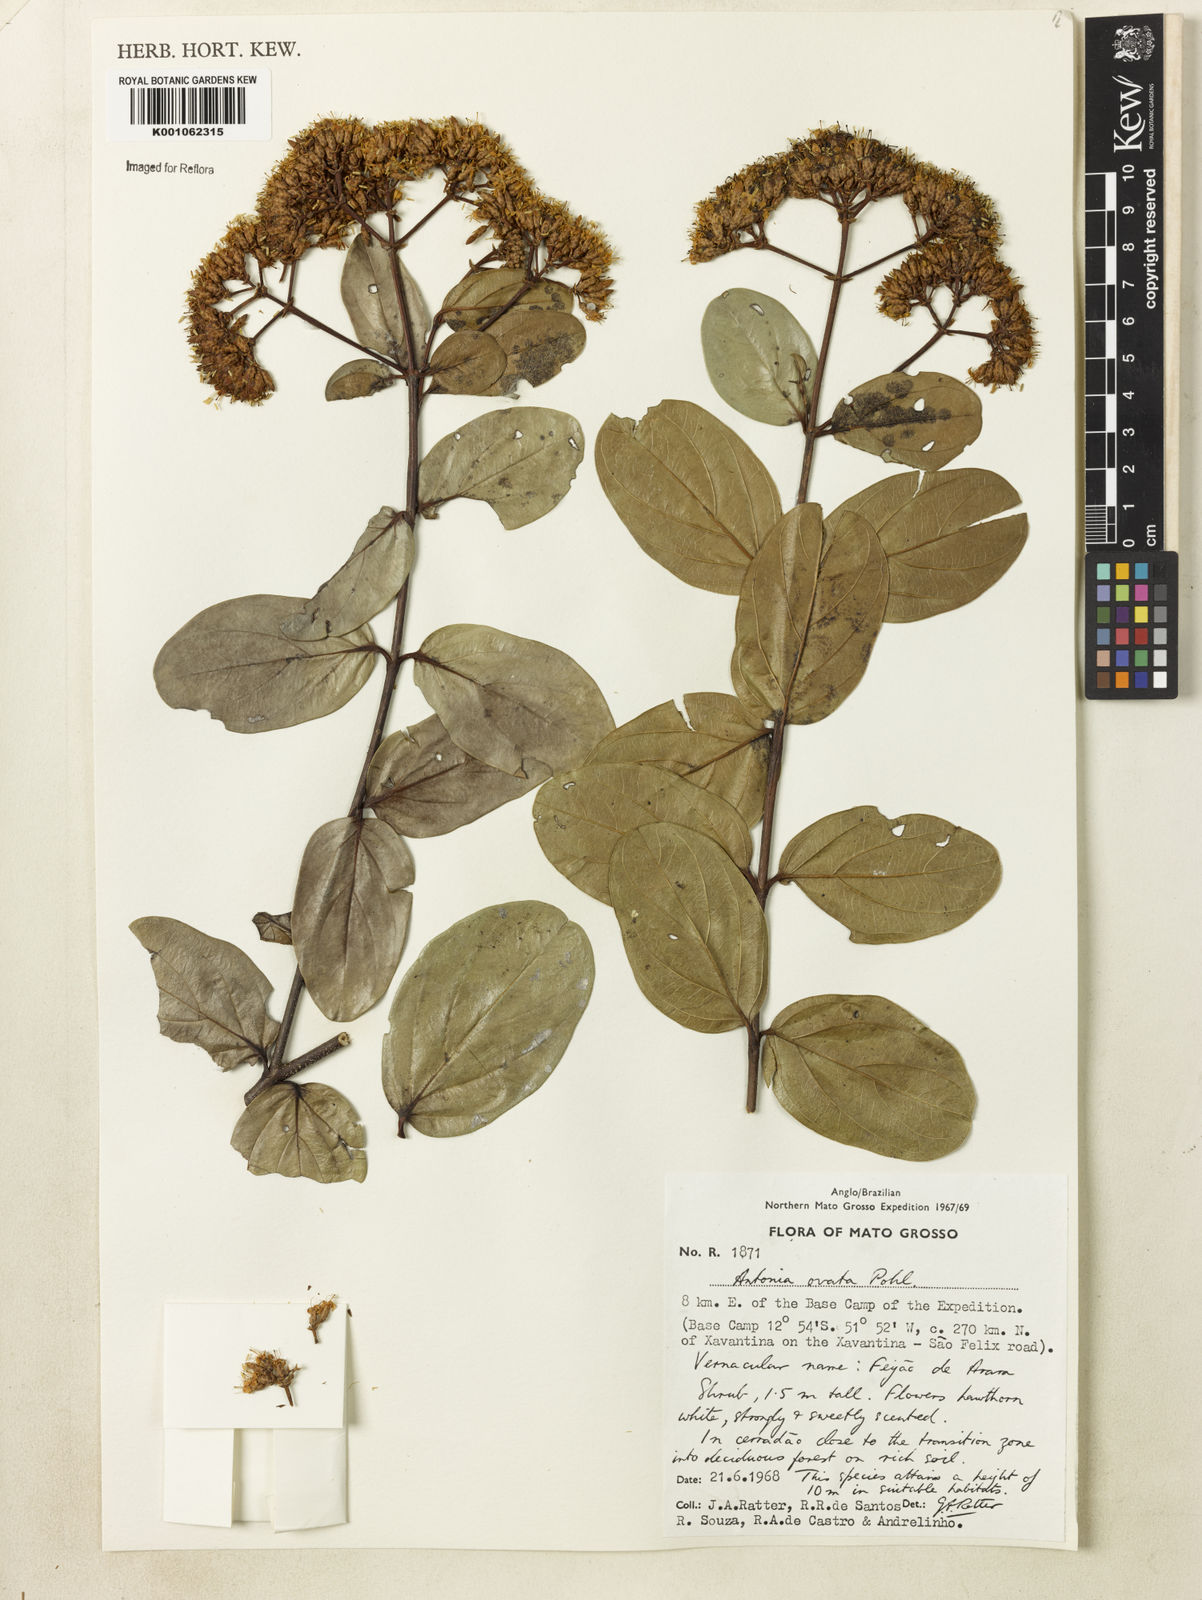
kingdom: Plantae
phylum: Tracheophyta
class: Magnoliopsida
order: Gentianales
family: Loganiaceae
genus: Antonia
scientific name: Antonia ovata
